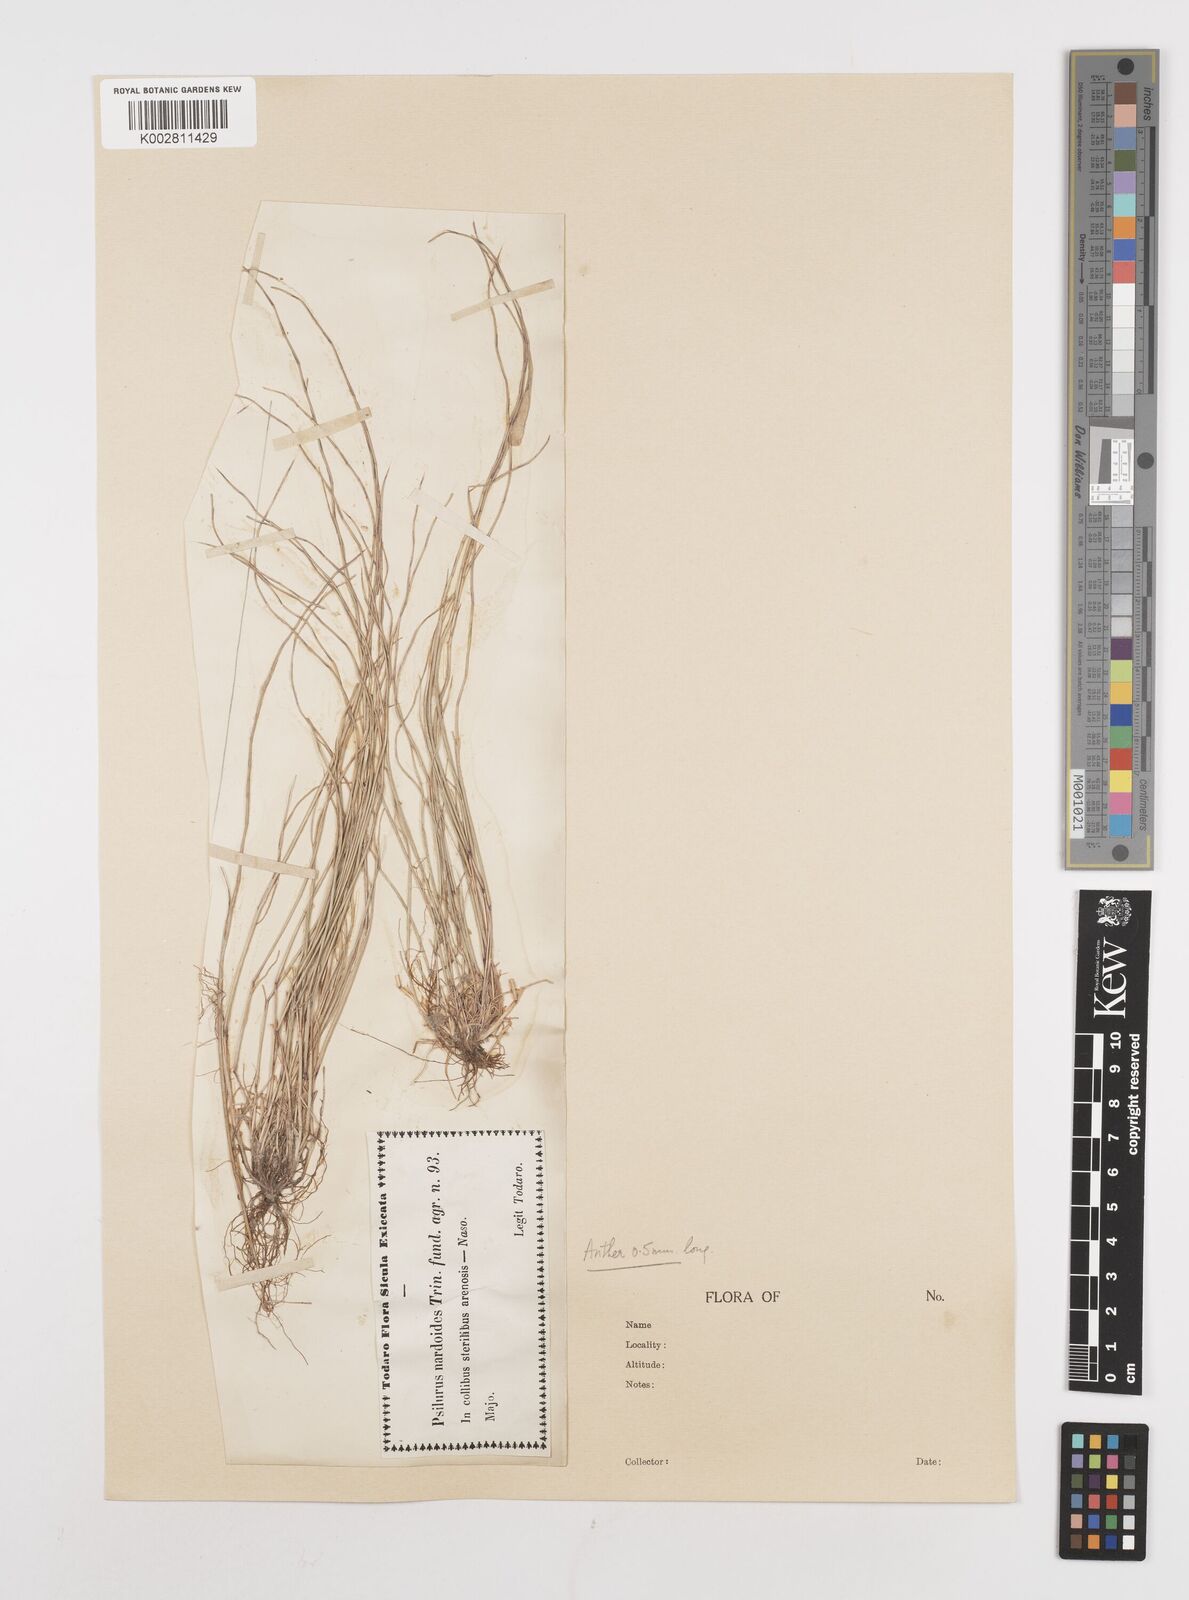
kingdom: Plantae
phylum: Tracheophyta
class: Liliopsida
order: Poales
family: Poaceae
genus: Festuca
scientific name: Festuca incurva
